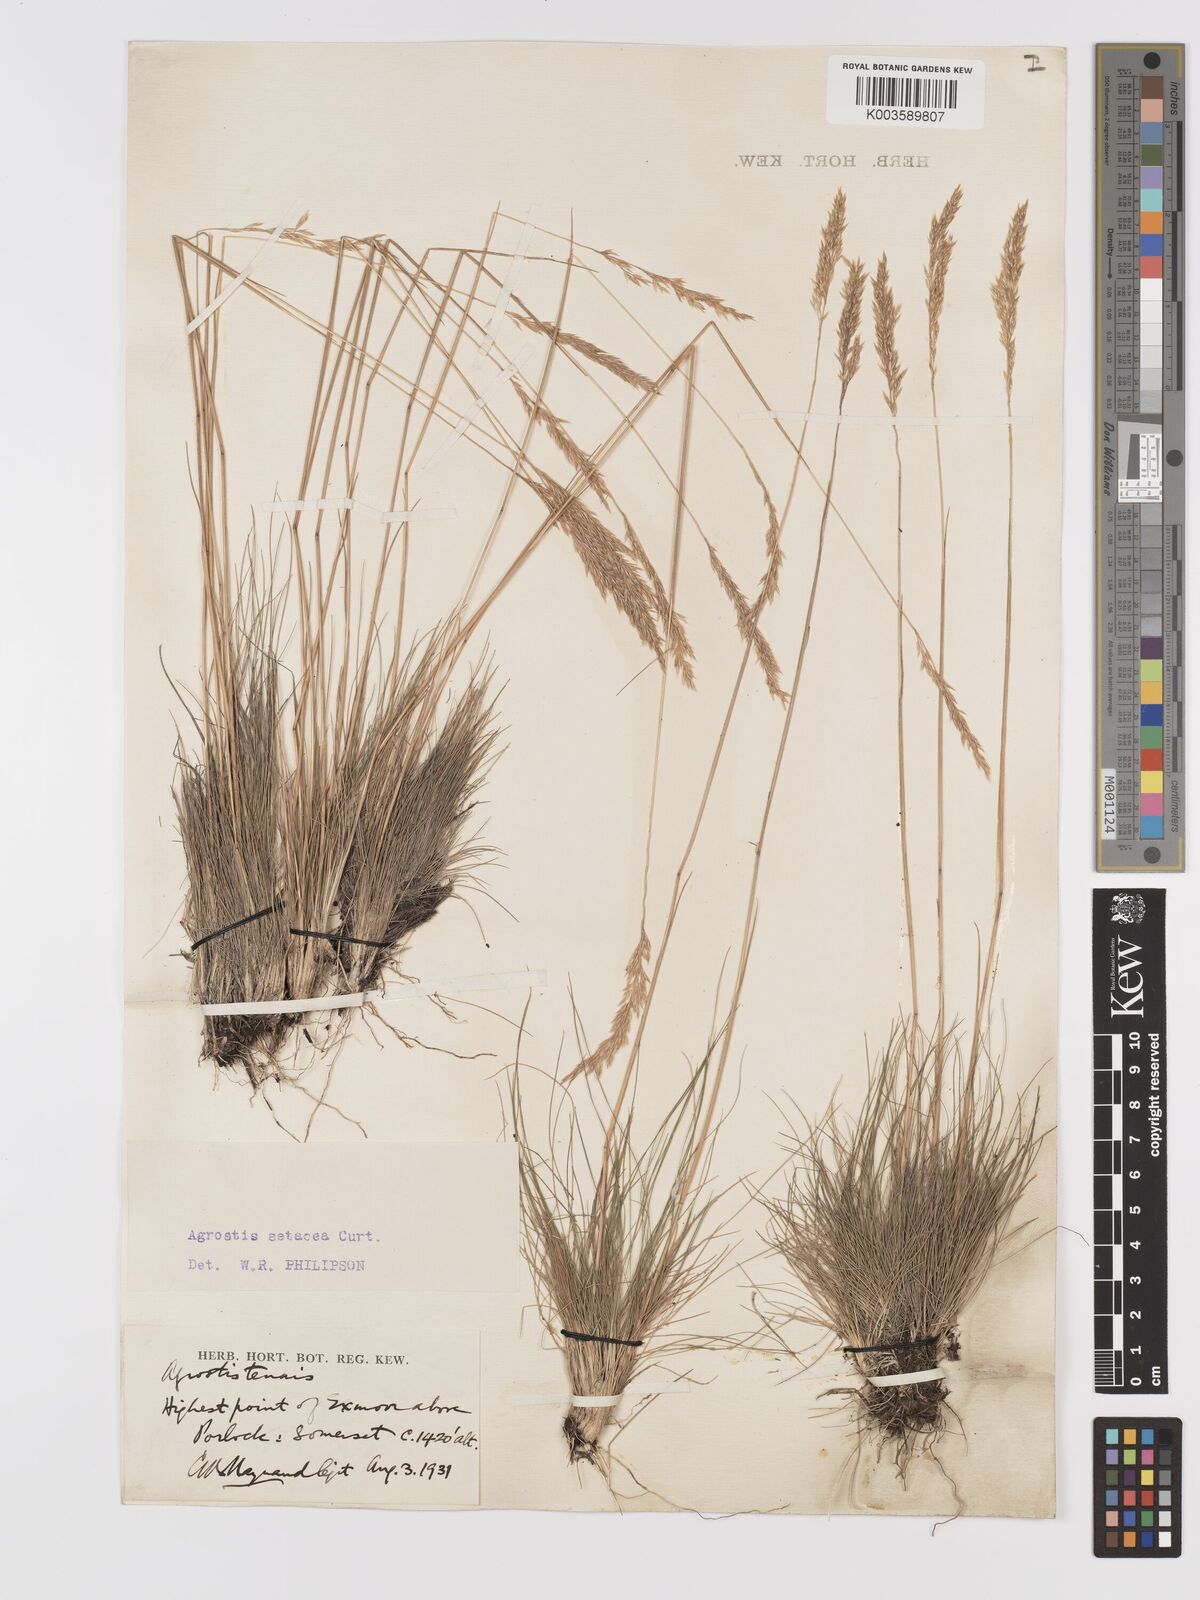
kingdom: Plantae
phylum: Tracheophyta
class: Liliopsida
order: Poales
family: Poaceae
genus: Alpagrostis
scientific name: Alpagrostis setacea
